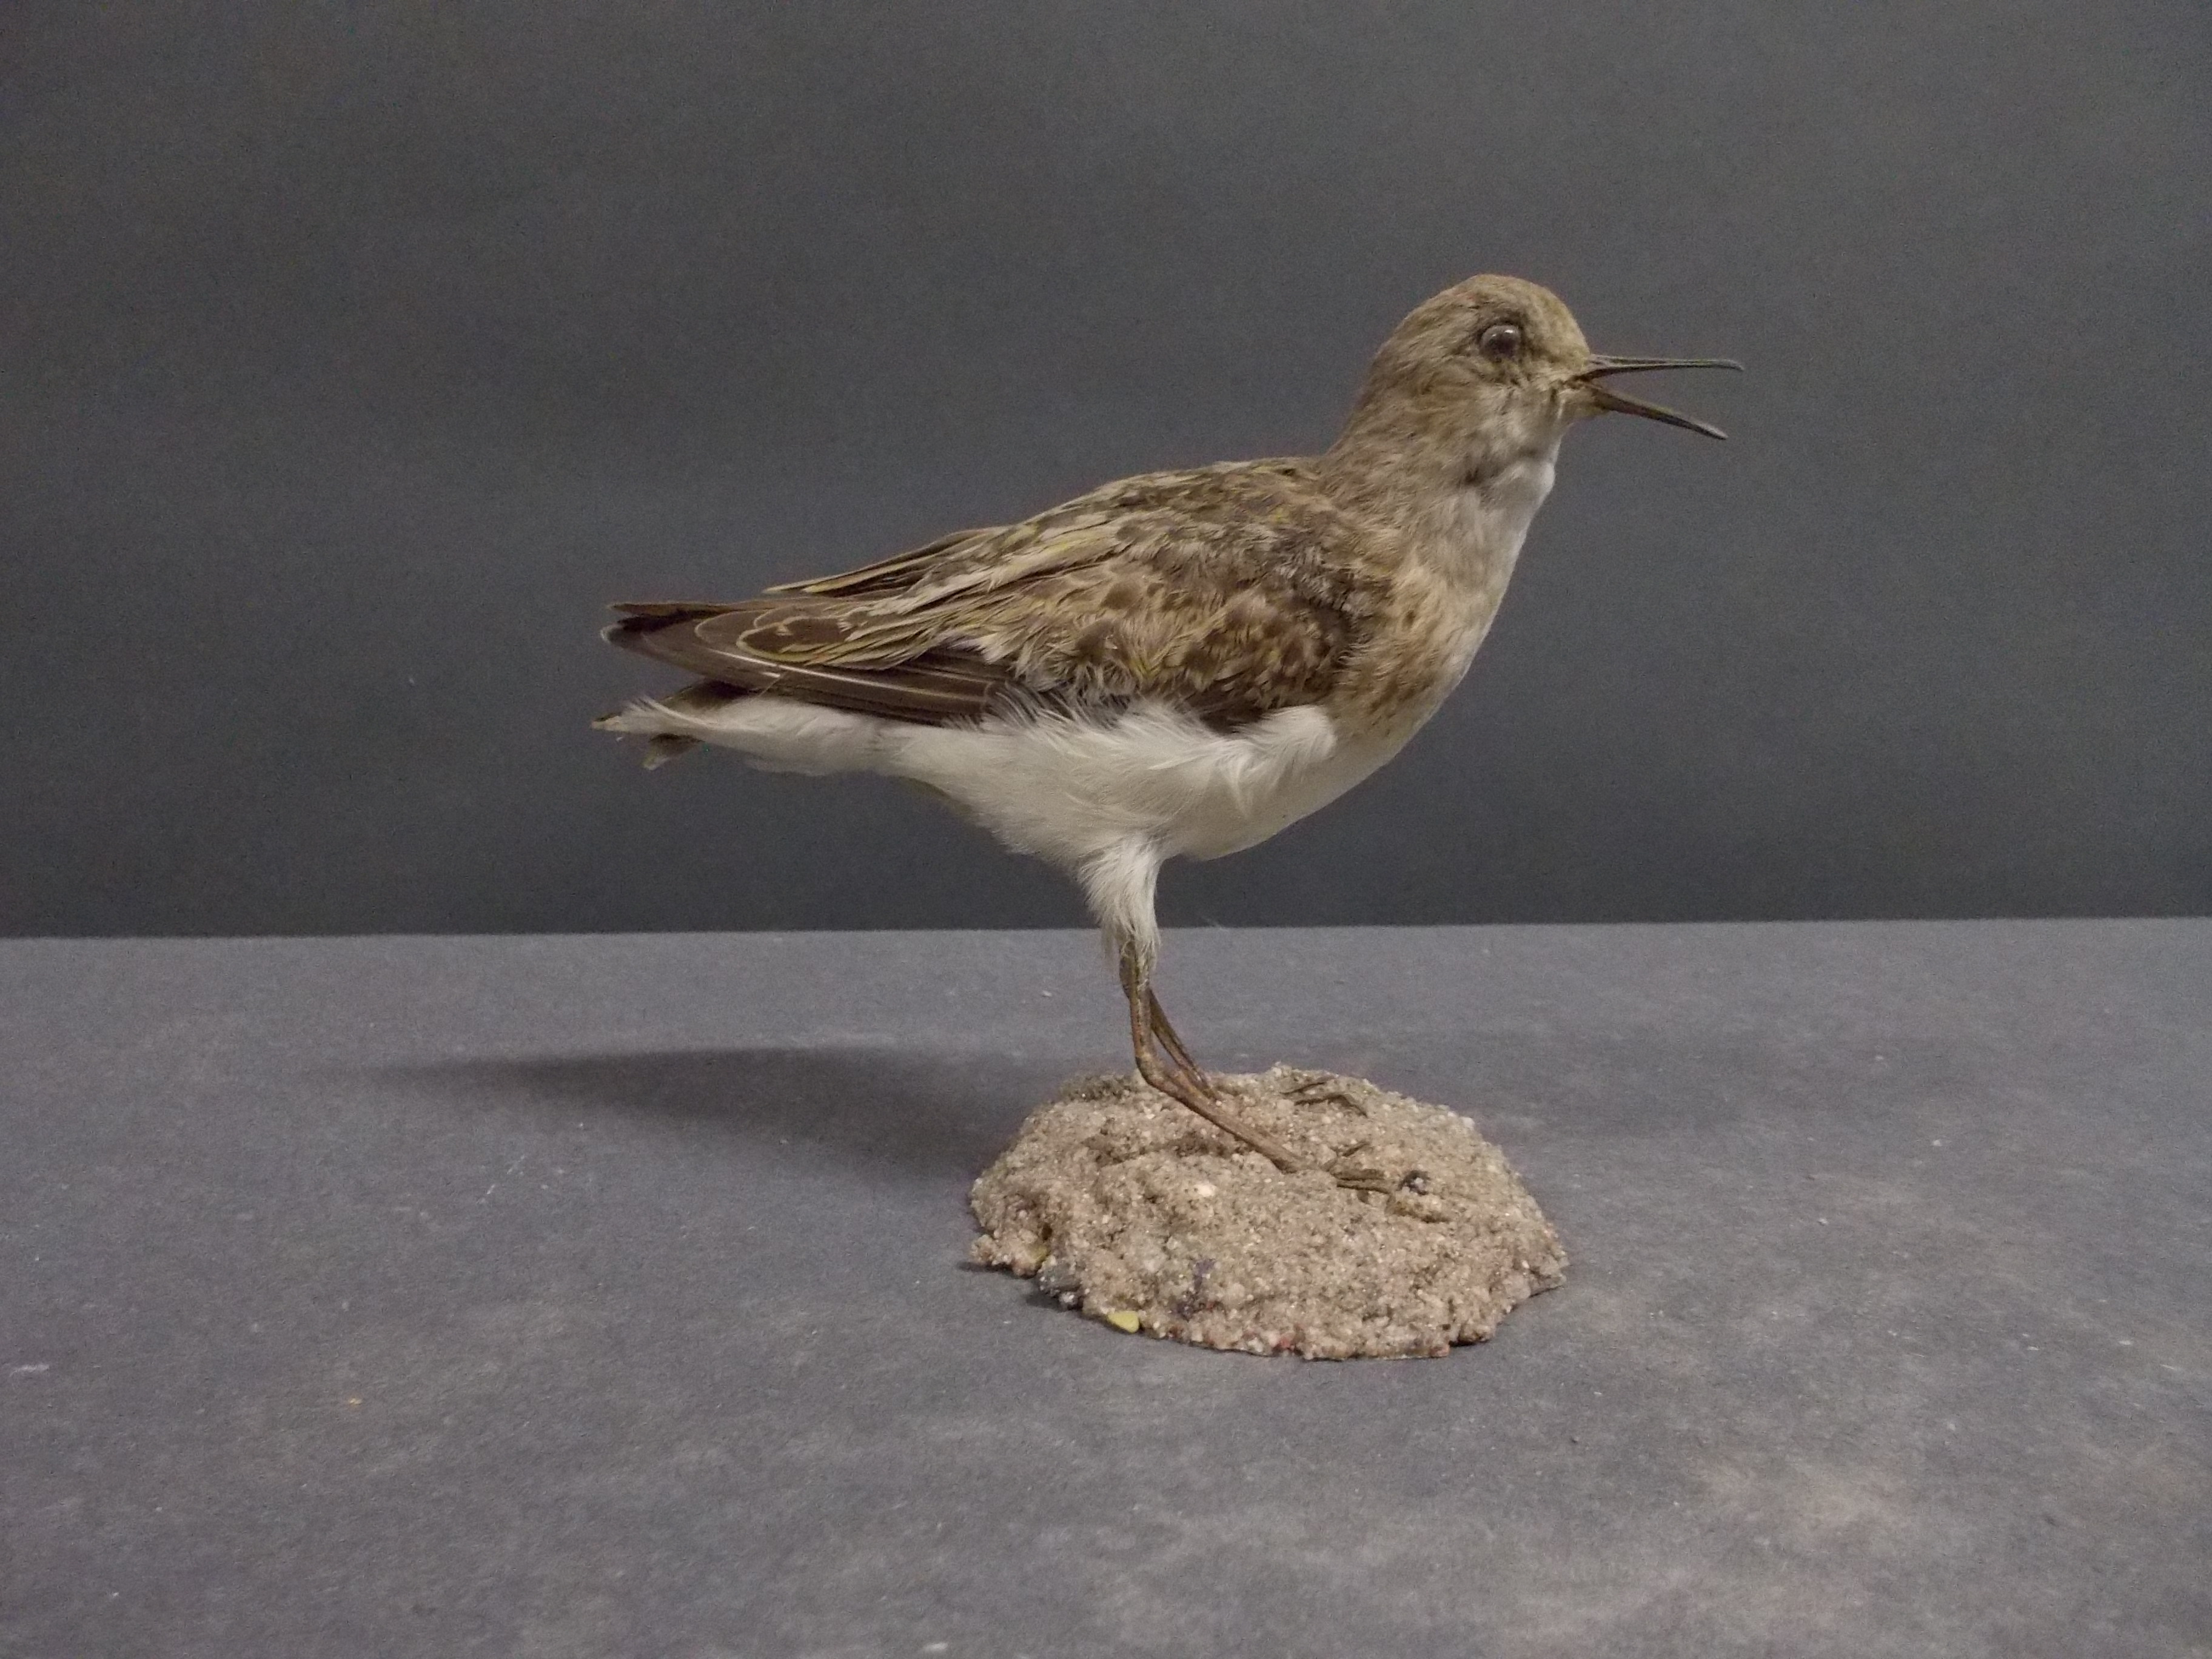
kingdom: Animalia
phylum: Chordata
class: Aves
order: Charadriiformes
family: Scolopacidae
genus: Calidris
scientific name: Calidris temminckii
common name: Temminck's stint
